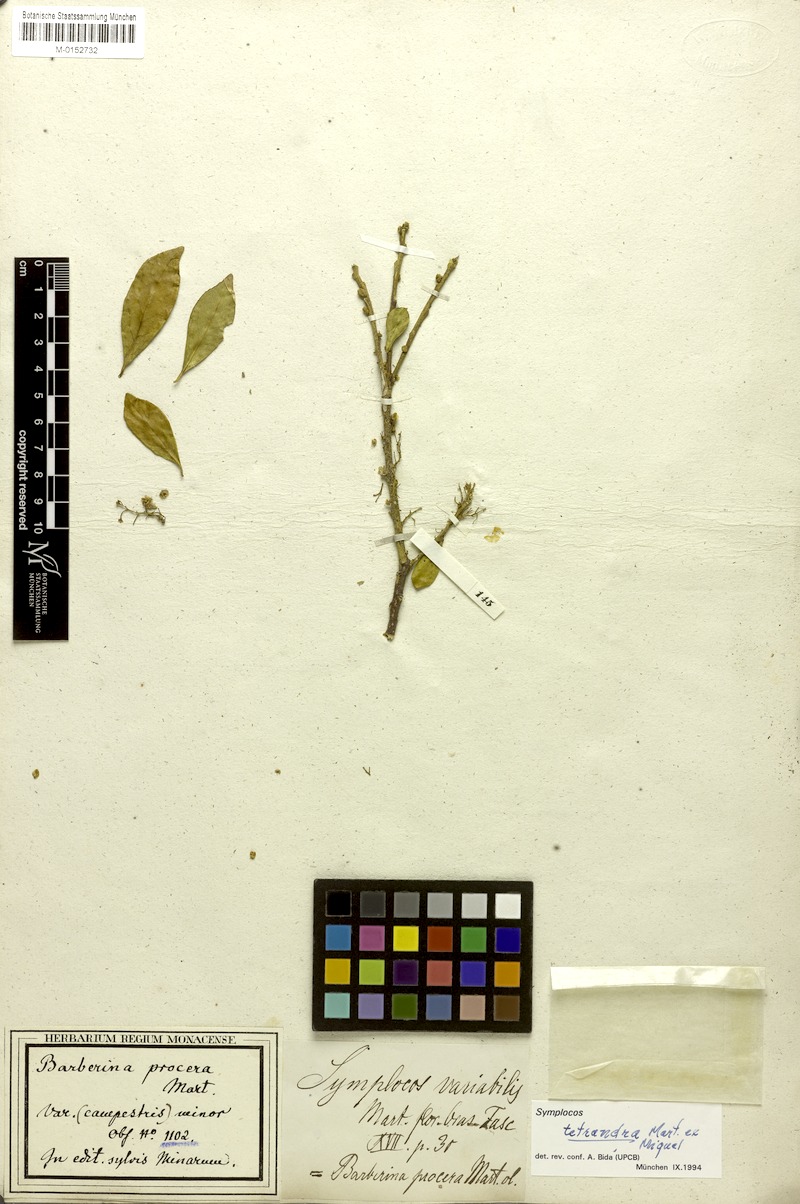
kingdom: Plantae
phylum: Tracheophyta
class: Magnoliopsida
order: Ericales
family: Symplocaceae
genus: Symplocos
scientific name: Symplocos tetrandra
